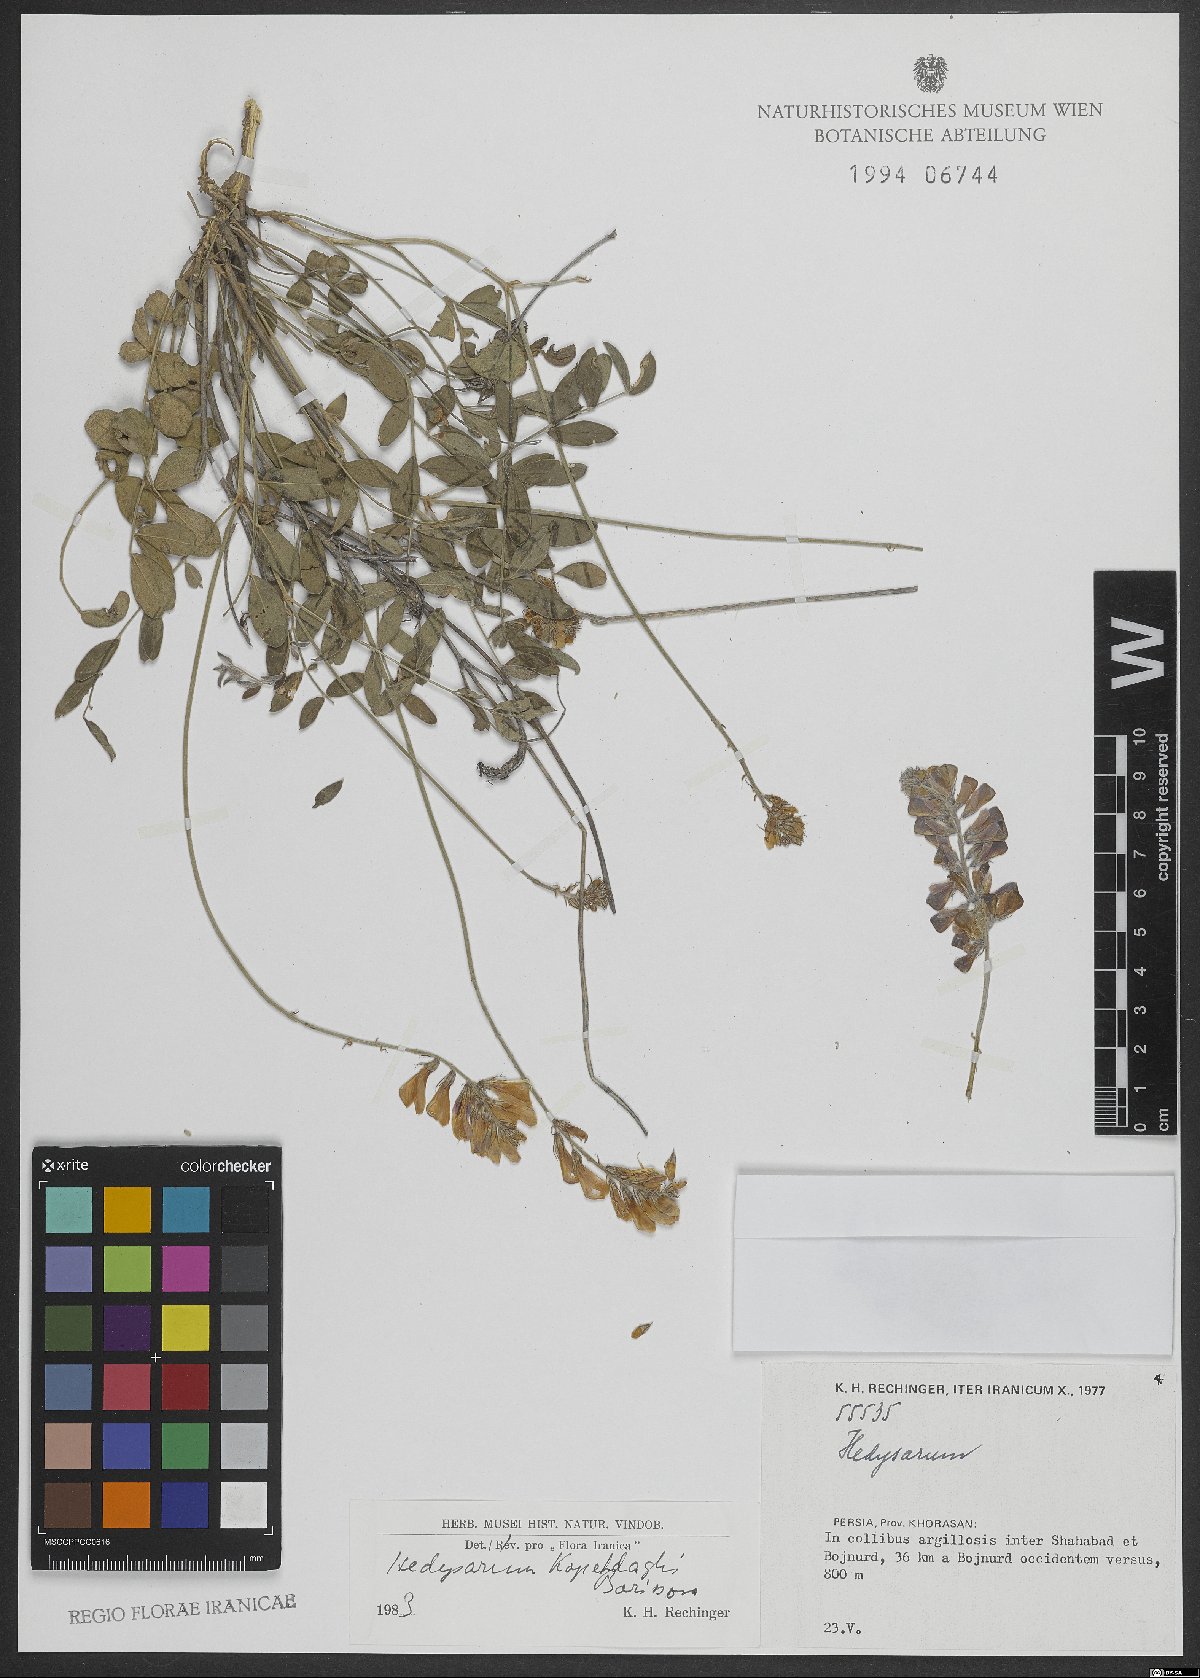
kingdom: Plantae
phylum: Tracheophyta
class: Magnoliopsida
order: Fabales
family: Fabaceae
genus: Hedysarum
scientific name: Hedysarum kopetdaghi
